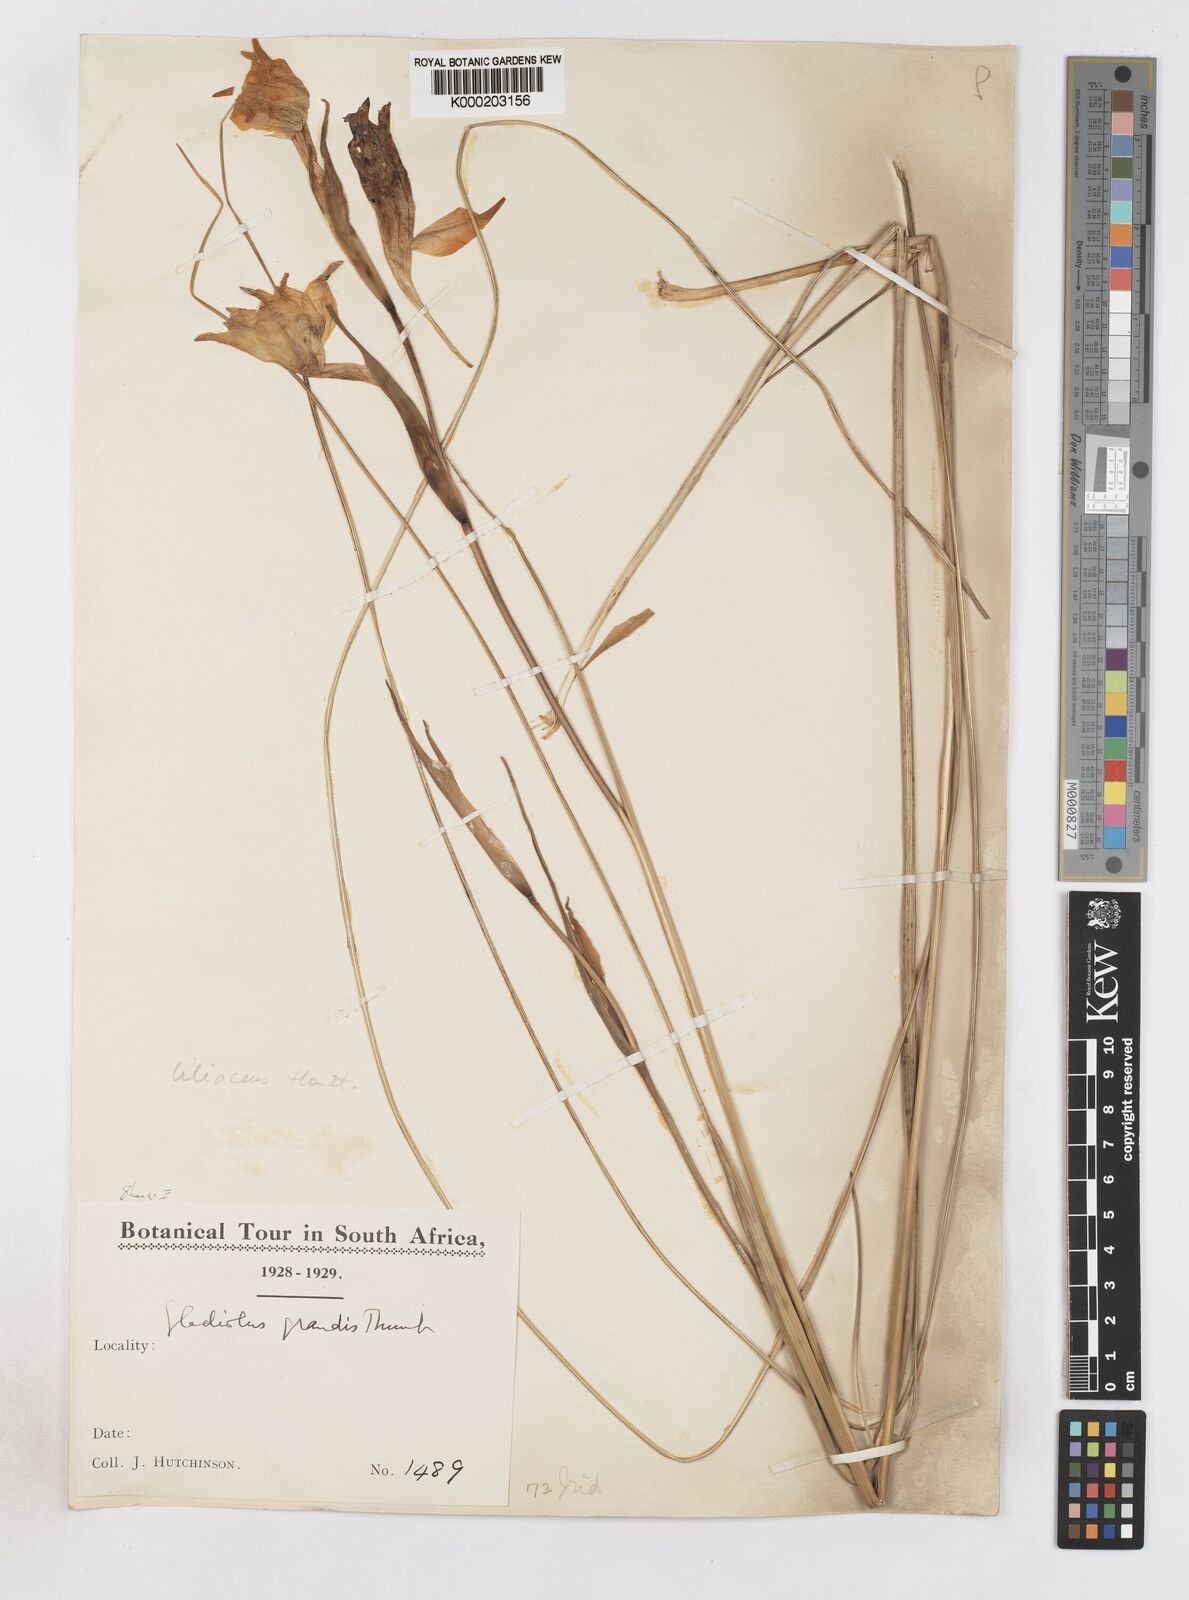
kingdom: Plantae
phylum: Tracheophyta
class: Liliopsida
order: Asparagales
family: Iridaceae
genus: Gladiolus
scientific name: Gladiolus liliaceus
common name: Large brown afrikaner
